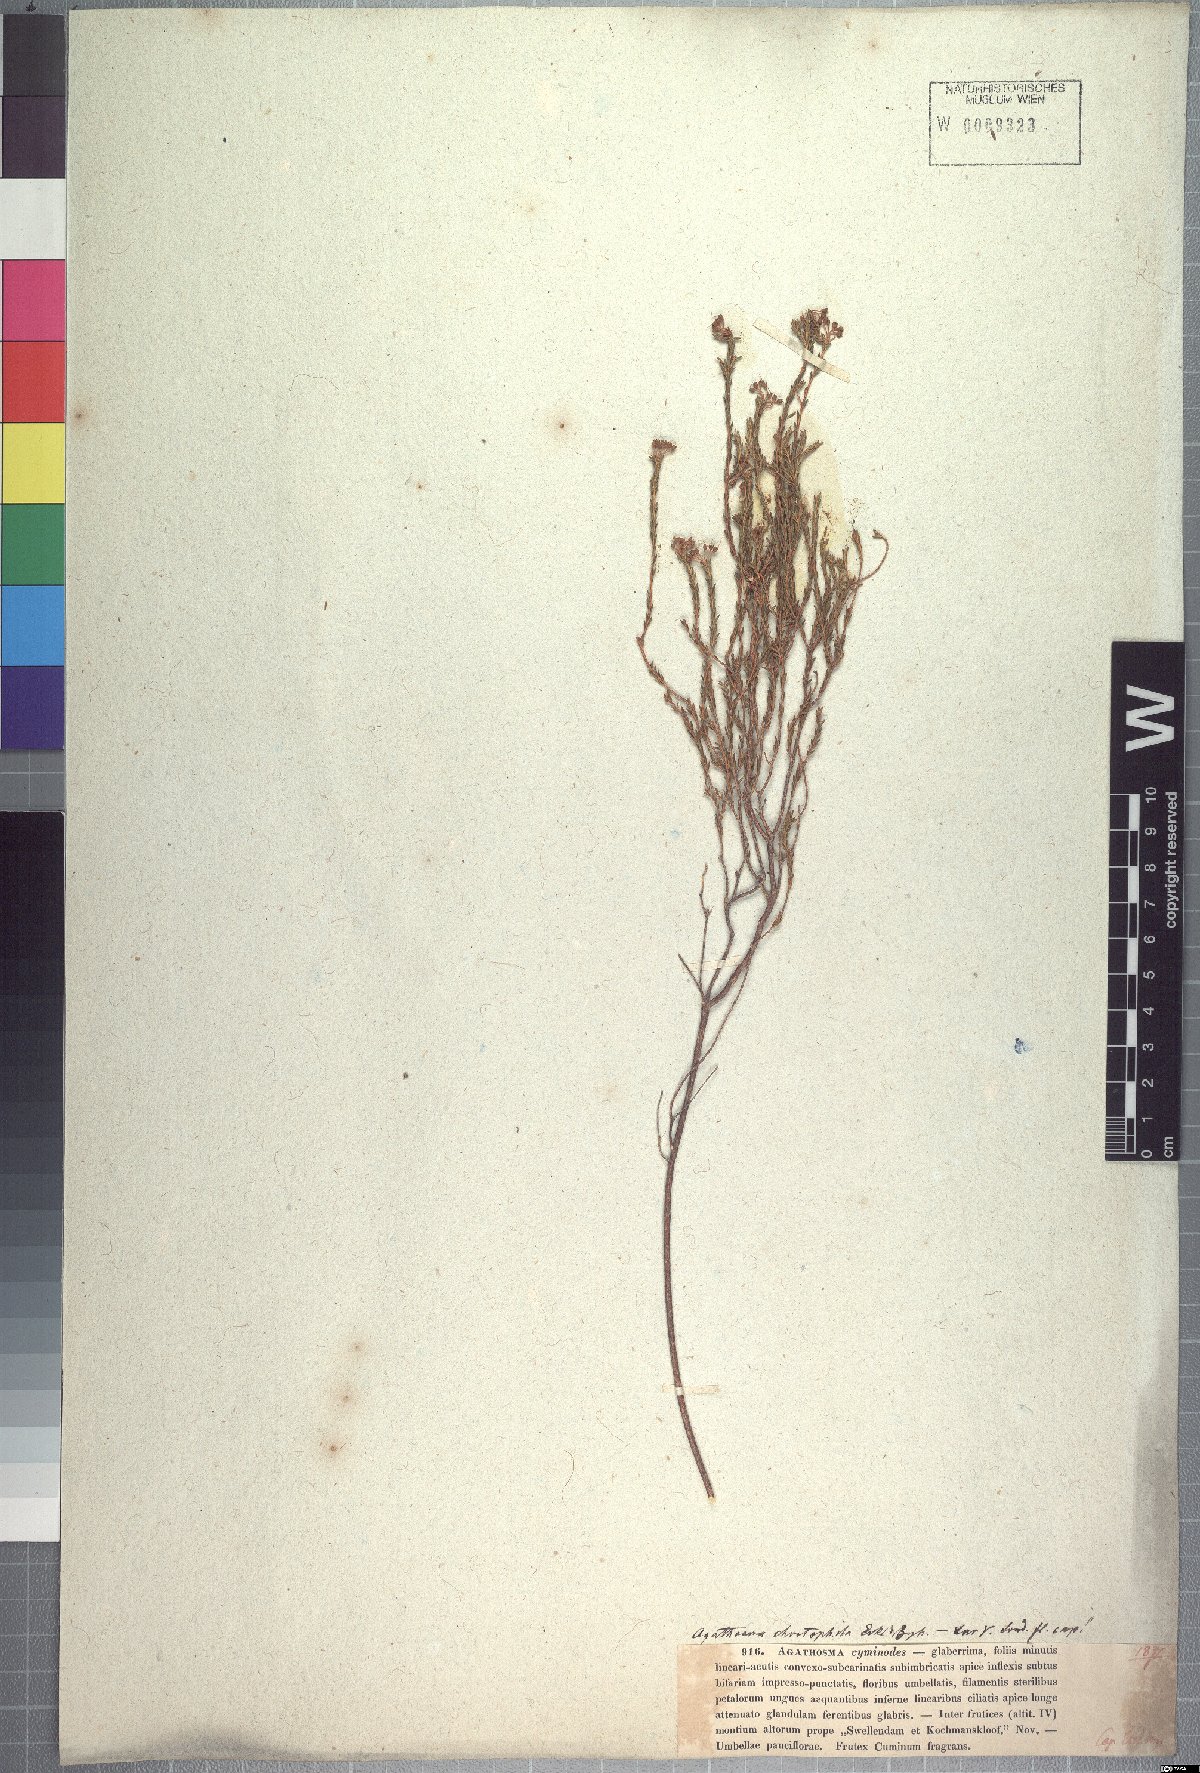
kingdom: Plantae
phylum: Tracheophyta
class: Magnoliopsida
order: Sapindales
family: Rutaceae
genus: Agathosma
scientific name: Agathosma capensis
